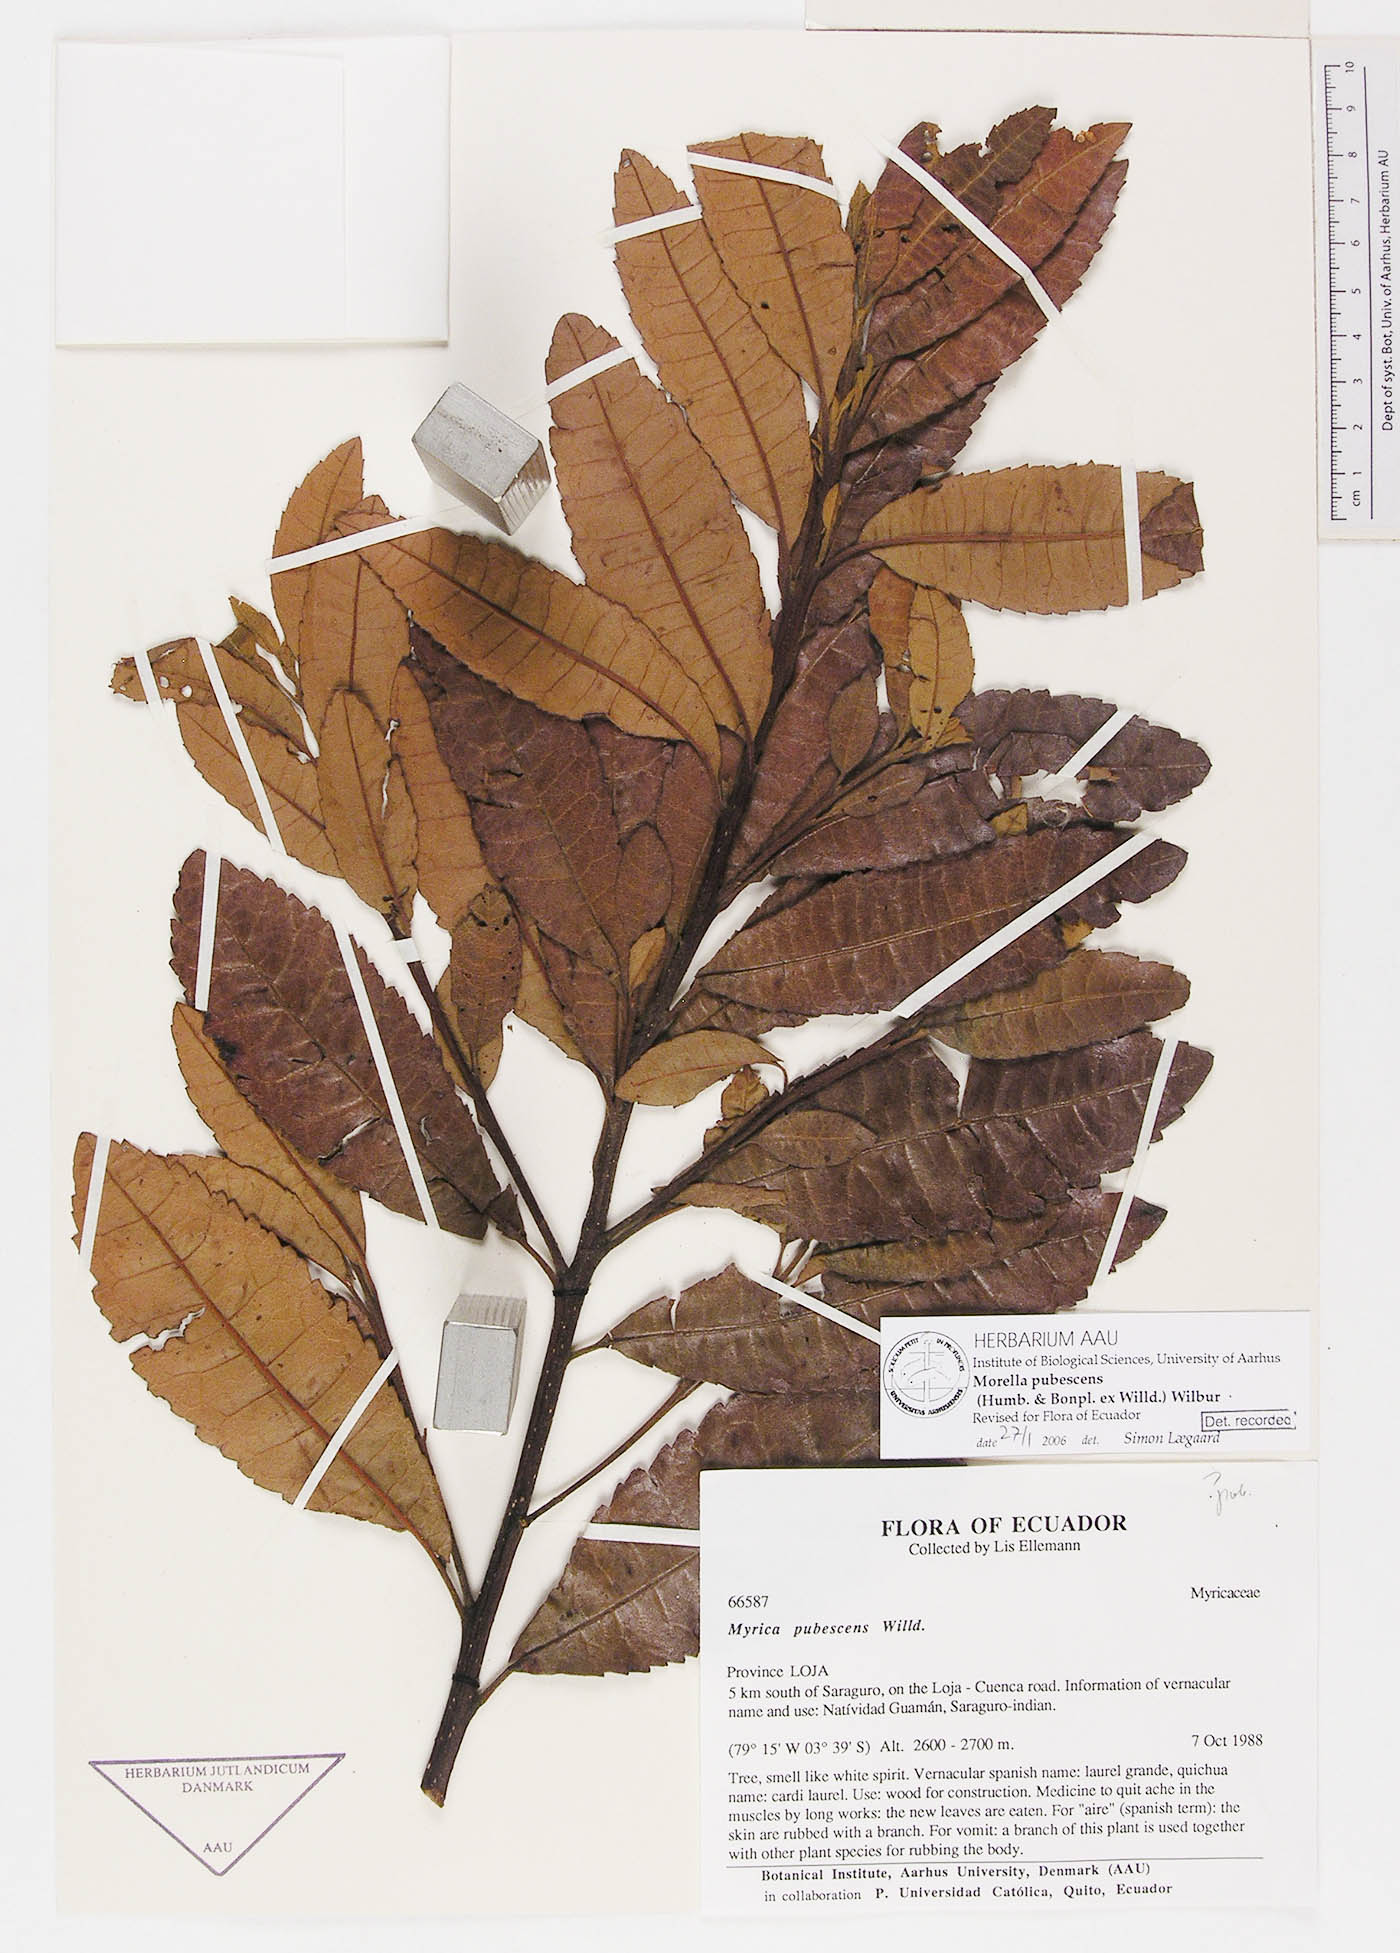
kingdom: Plantae
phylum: Tracheophyta
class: Magnoliopsida
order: Fagales
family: Myricaceae
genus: Morella
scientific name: Morella pubescens
